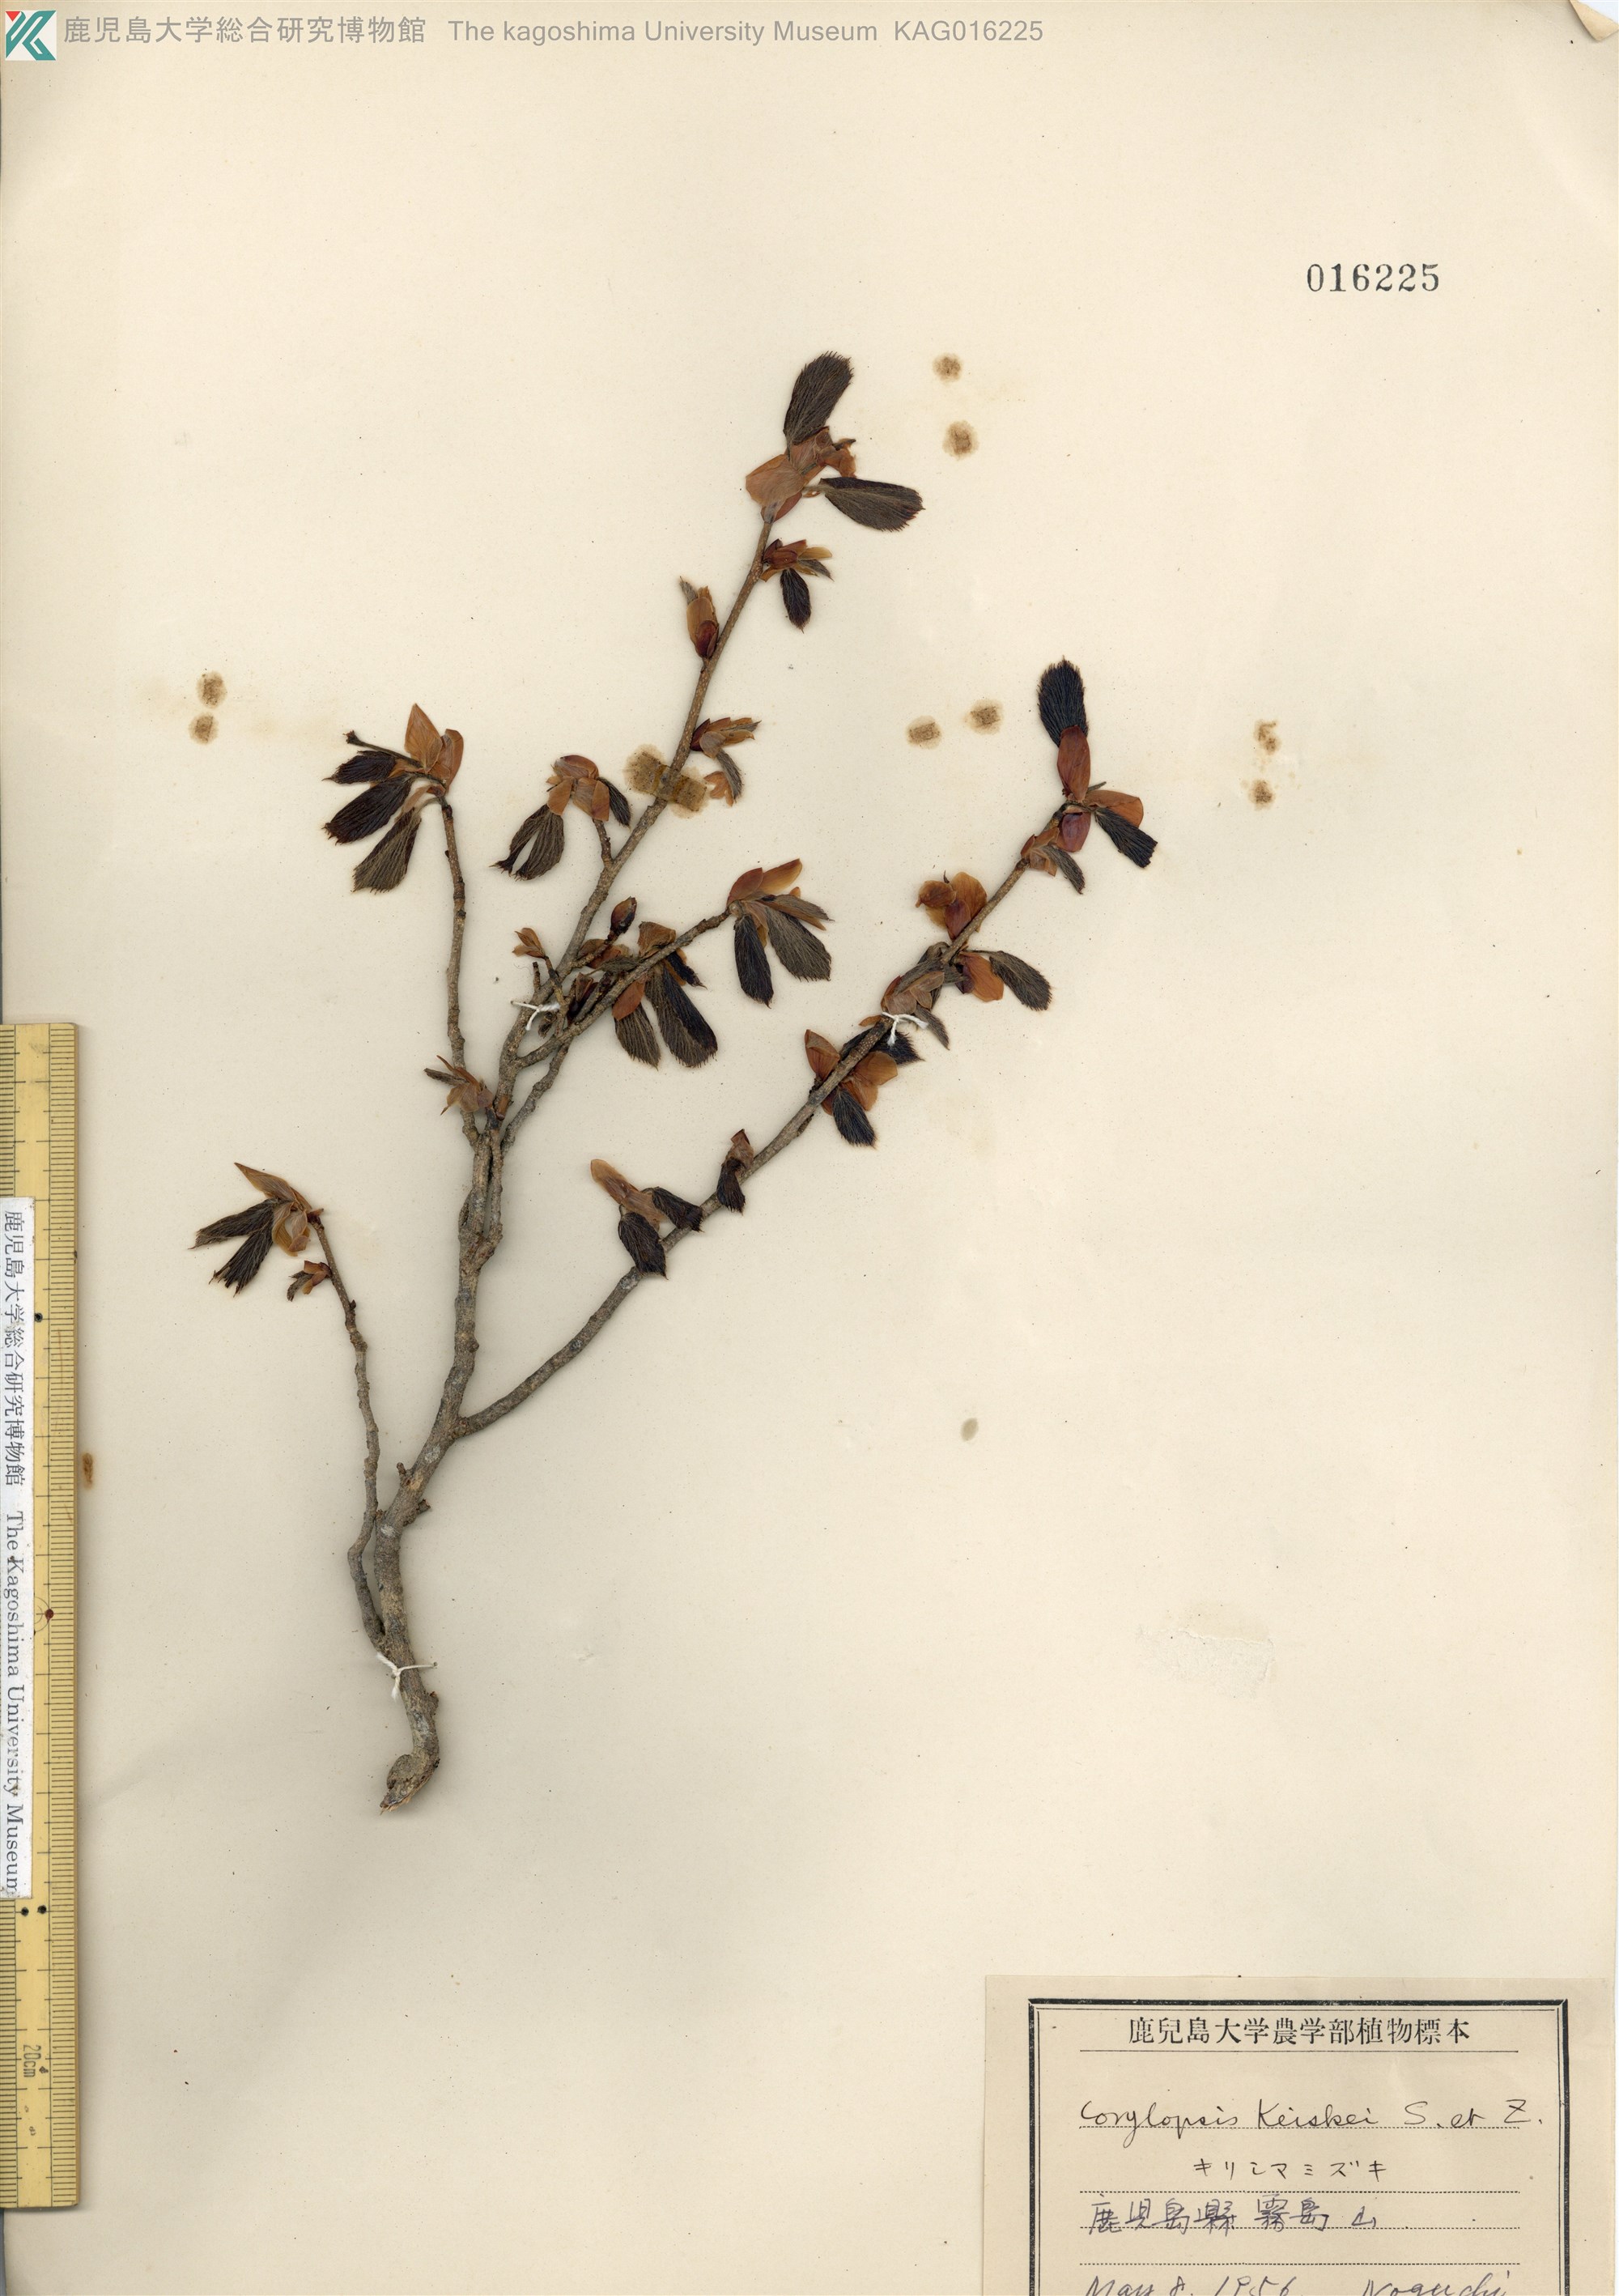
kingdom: Plantae
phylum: Tracheophyta
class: Magnoliopsida
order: Saxifragales
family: Hamamelidaceae
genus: Corylopsis
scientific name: Corylopsis glabrescens
